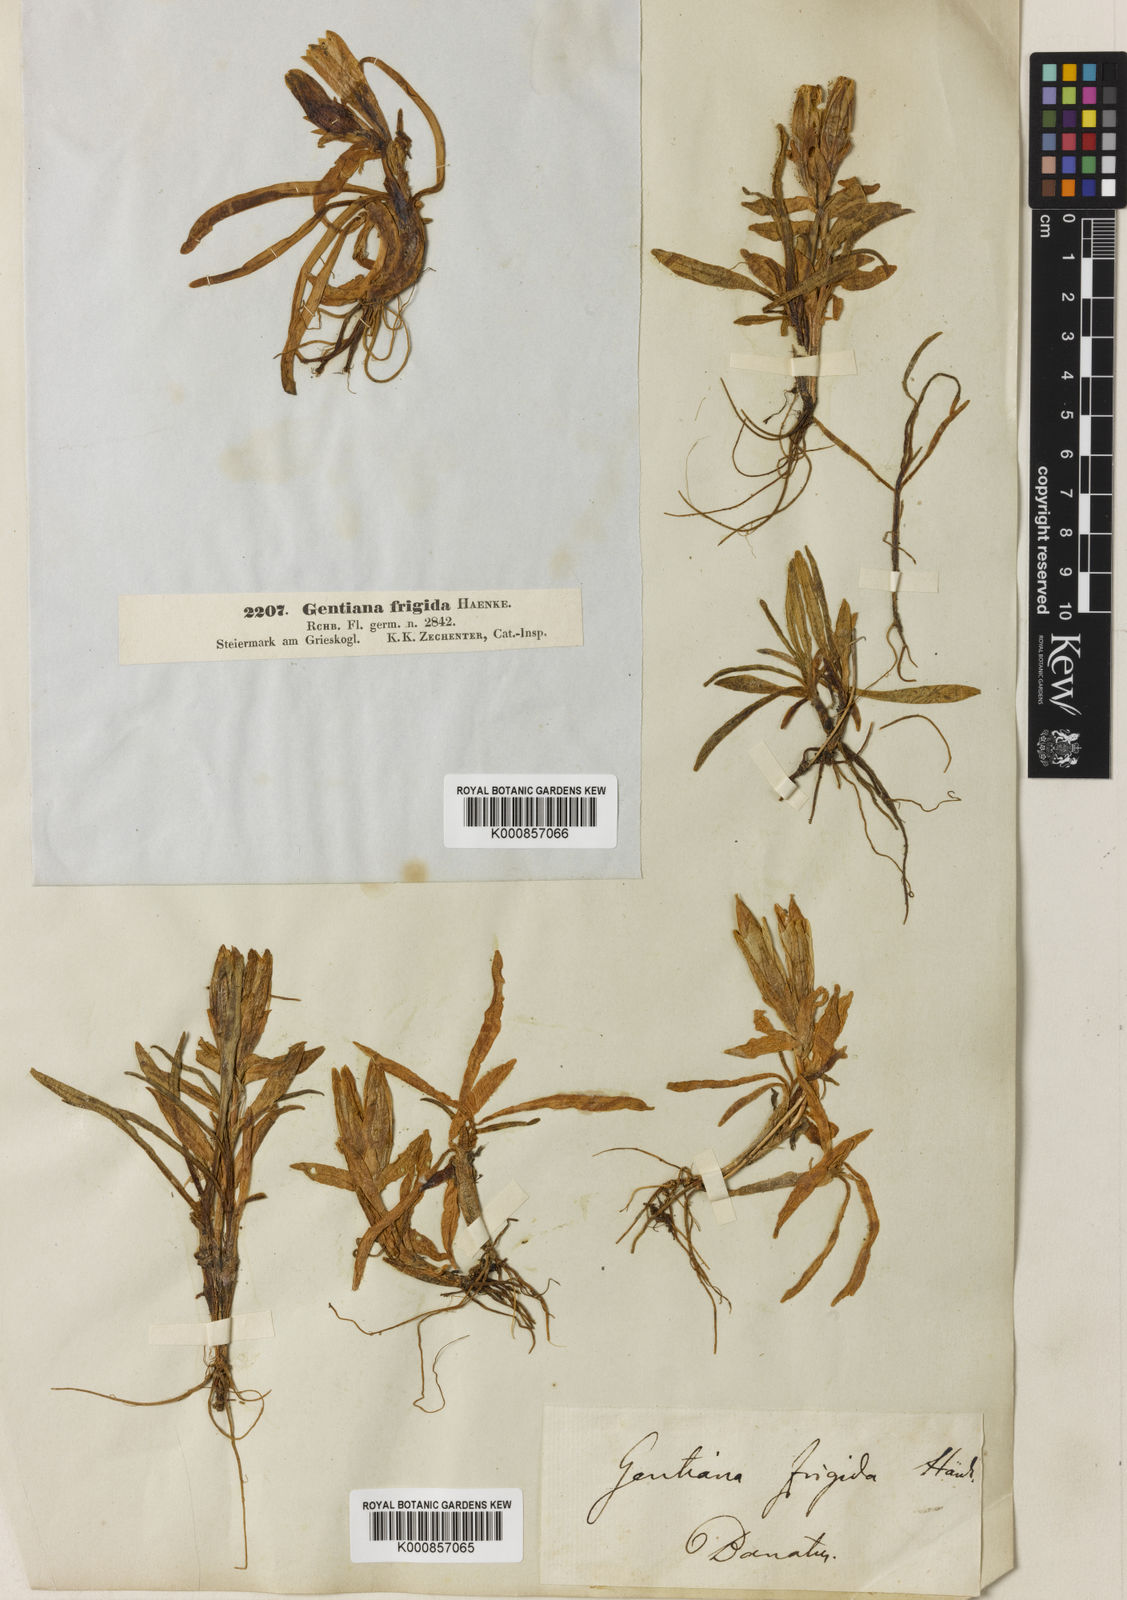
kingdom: Plantae
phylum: Tracheophyta
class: Magnoliopsida
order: Gentianales
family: Gentianaceae
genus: Gentiana
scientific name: Gentiana frigida
